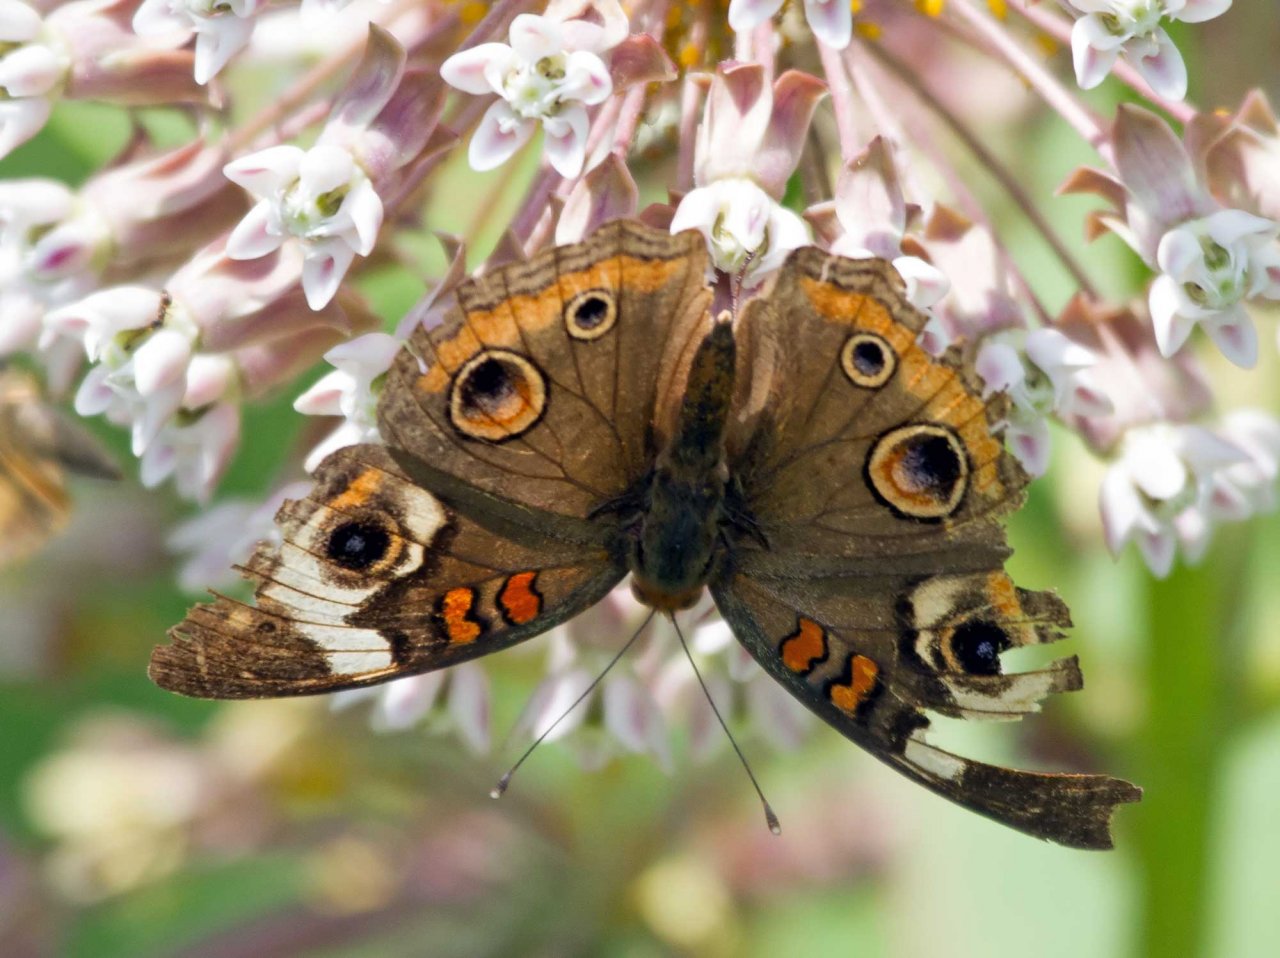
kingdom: Animalia
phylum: Arthropoda
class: Insecta
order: Lepidoptera
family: Nymphalidae
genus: Junonia
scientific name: Junonia coenia
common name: Common Buckeye
